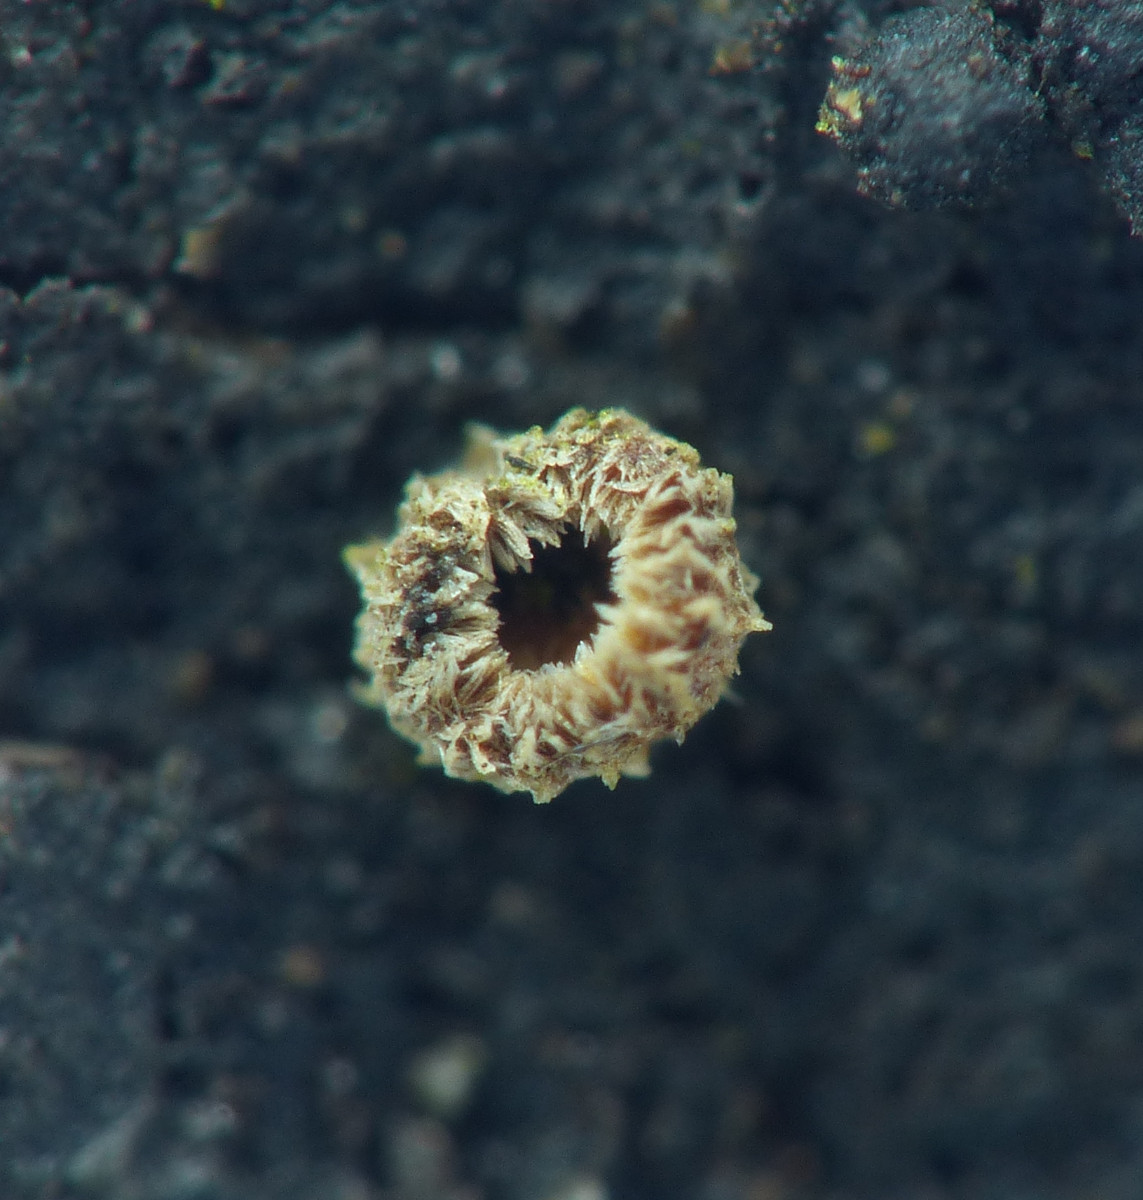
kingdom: Fungi
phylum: Ascomycota
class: Leotiomycetes
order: Helotiales
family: Lachnaceae
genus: Trichopeziza
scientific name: Trichopeziza subsulphurea
